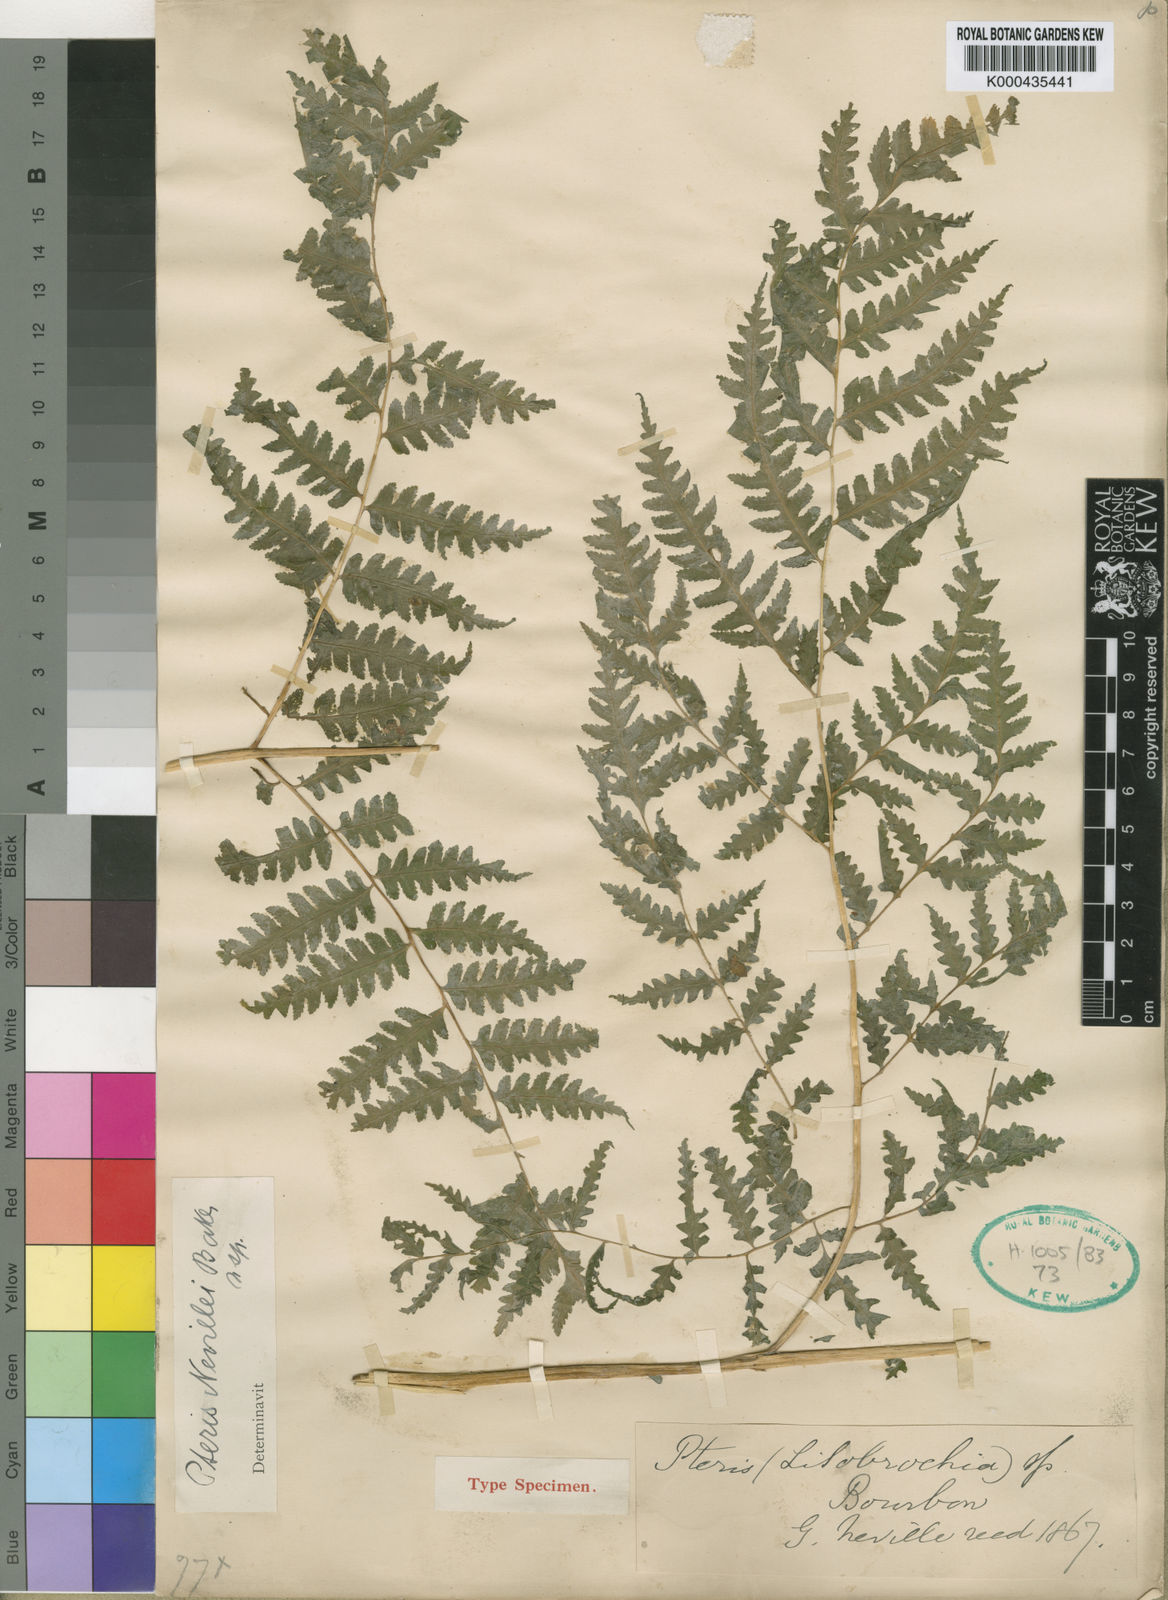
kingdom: Plantae
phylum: Tracheophyta
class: Polypodiopsida
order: Polypodiales
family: Pteridaceae
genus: Pteris
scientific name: Pteris nevillei
